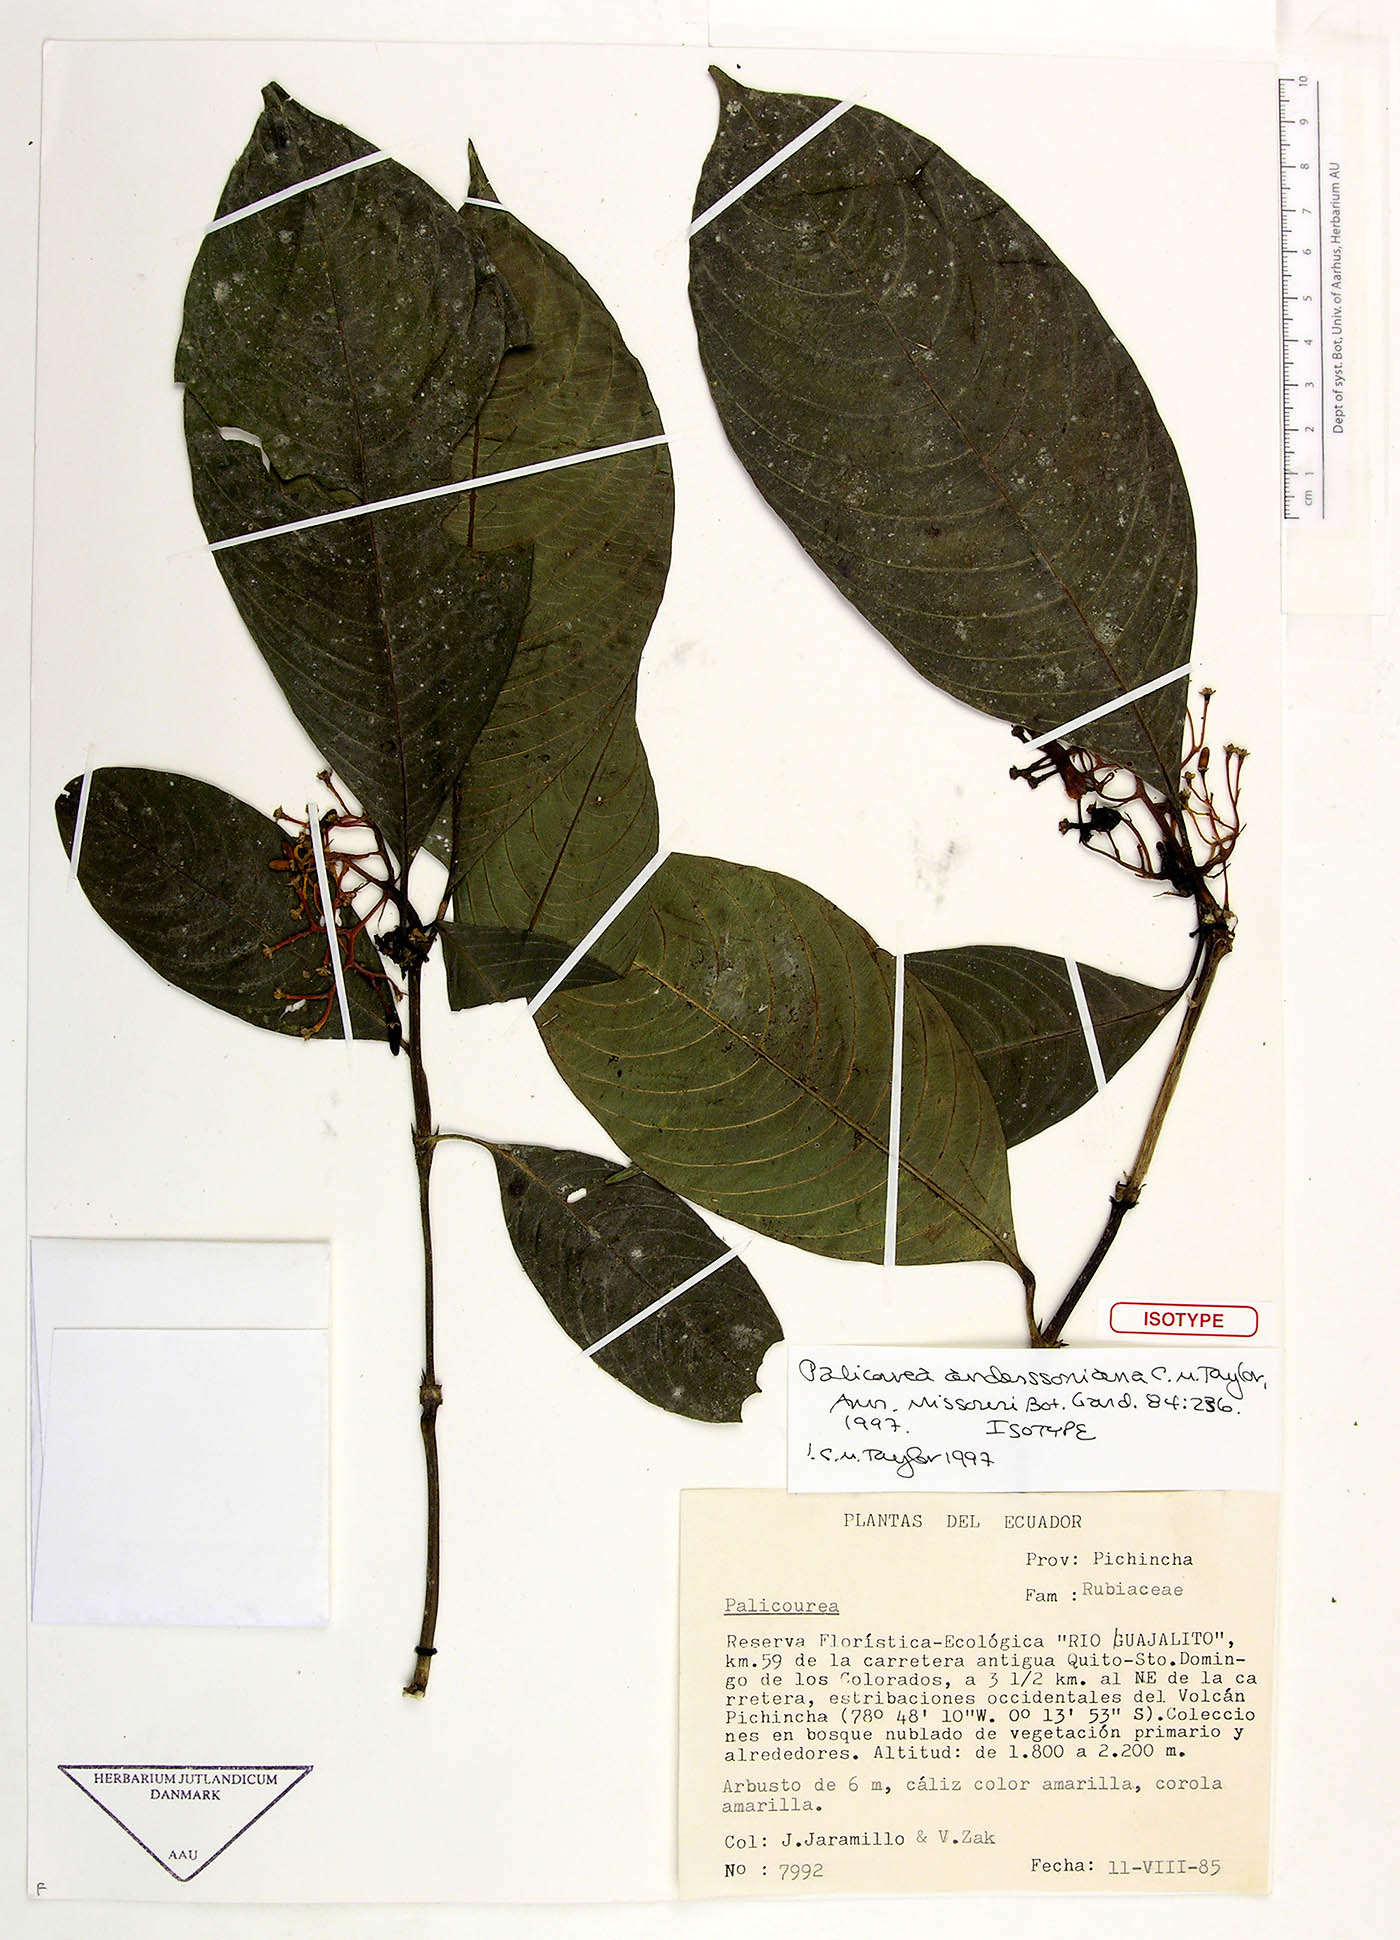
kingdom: Plantae
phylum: Tracheophyta
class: Magnoliopsida
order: Gentianales
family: Rubiaceae
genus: Palicourea
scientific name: Palicourea anderssoniana
